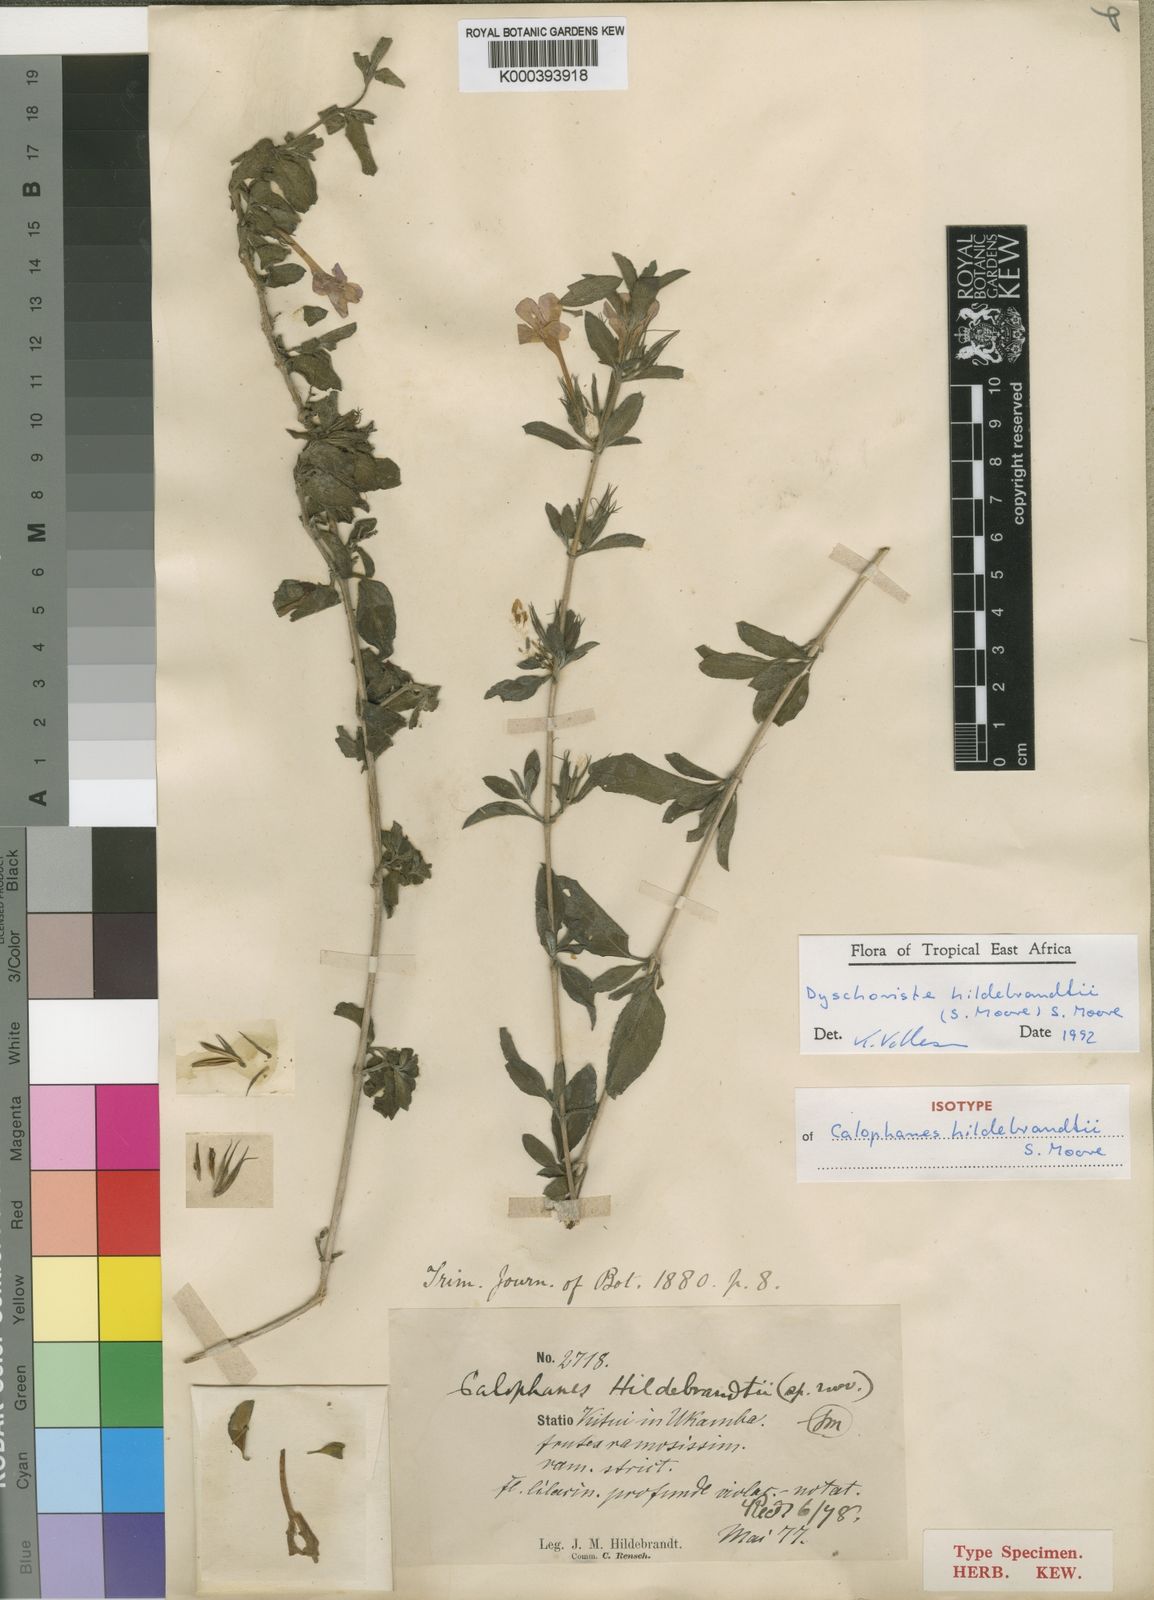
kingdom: Plantae
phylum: Tracheophyta
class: Magnoliopsida
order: Lamiales
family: Acanthaceae
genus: Dyschoriste
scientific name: Dyschoriste
